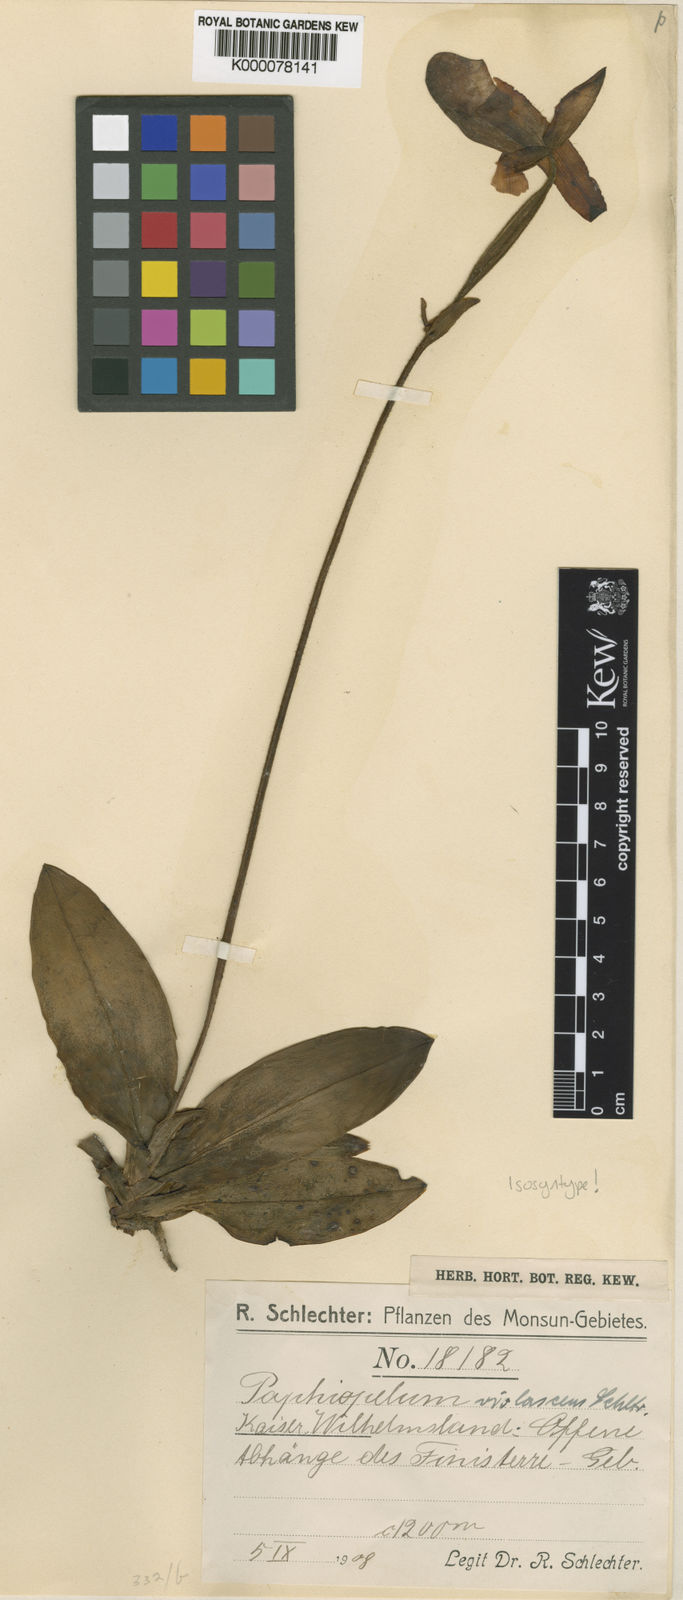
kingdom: Plantae
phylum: Tracheophyta
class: Liliopsida
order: Asparagales
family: Orchidaceae
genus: Paphiopedilum
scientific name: Paphiopedilum violascens
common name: Shimmering purple paphiopedilum
